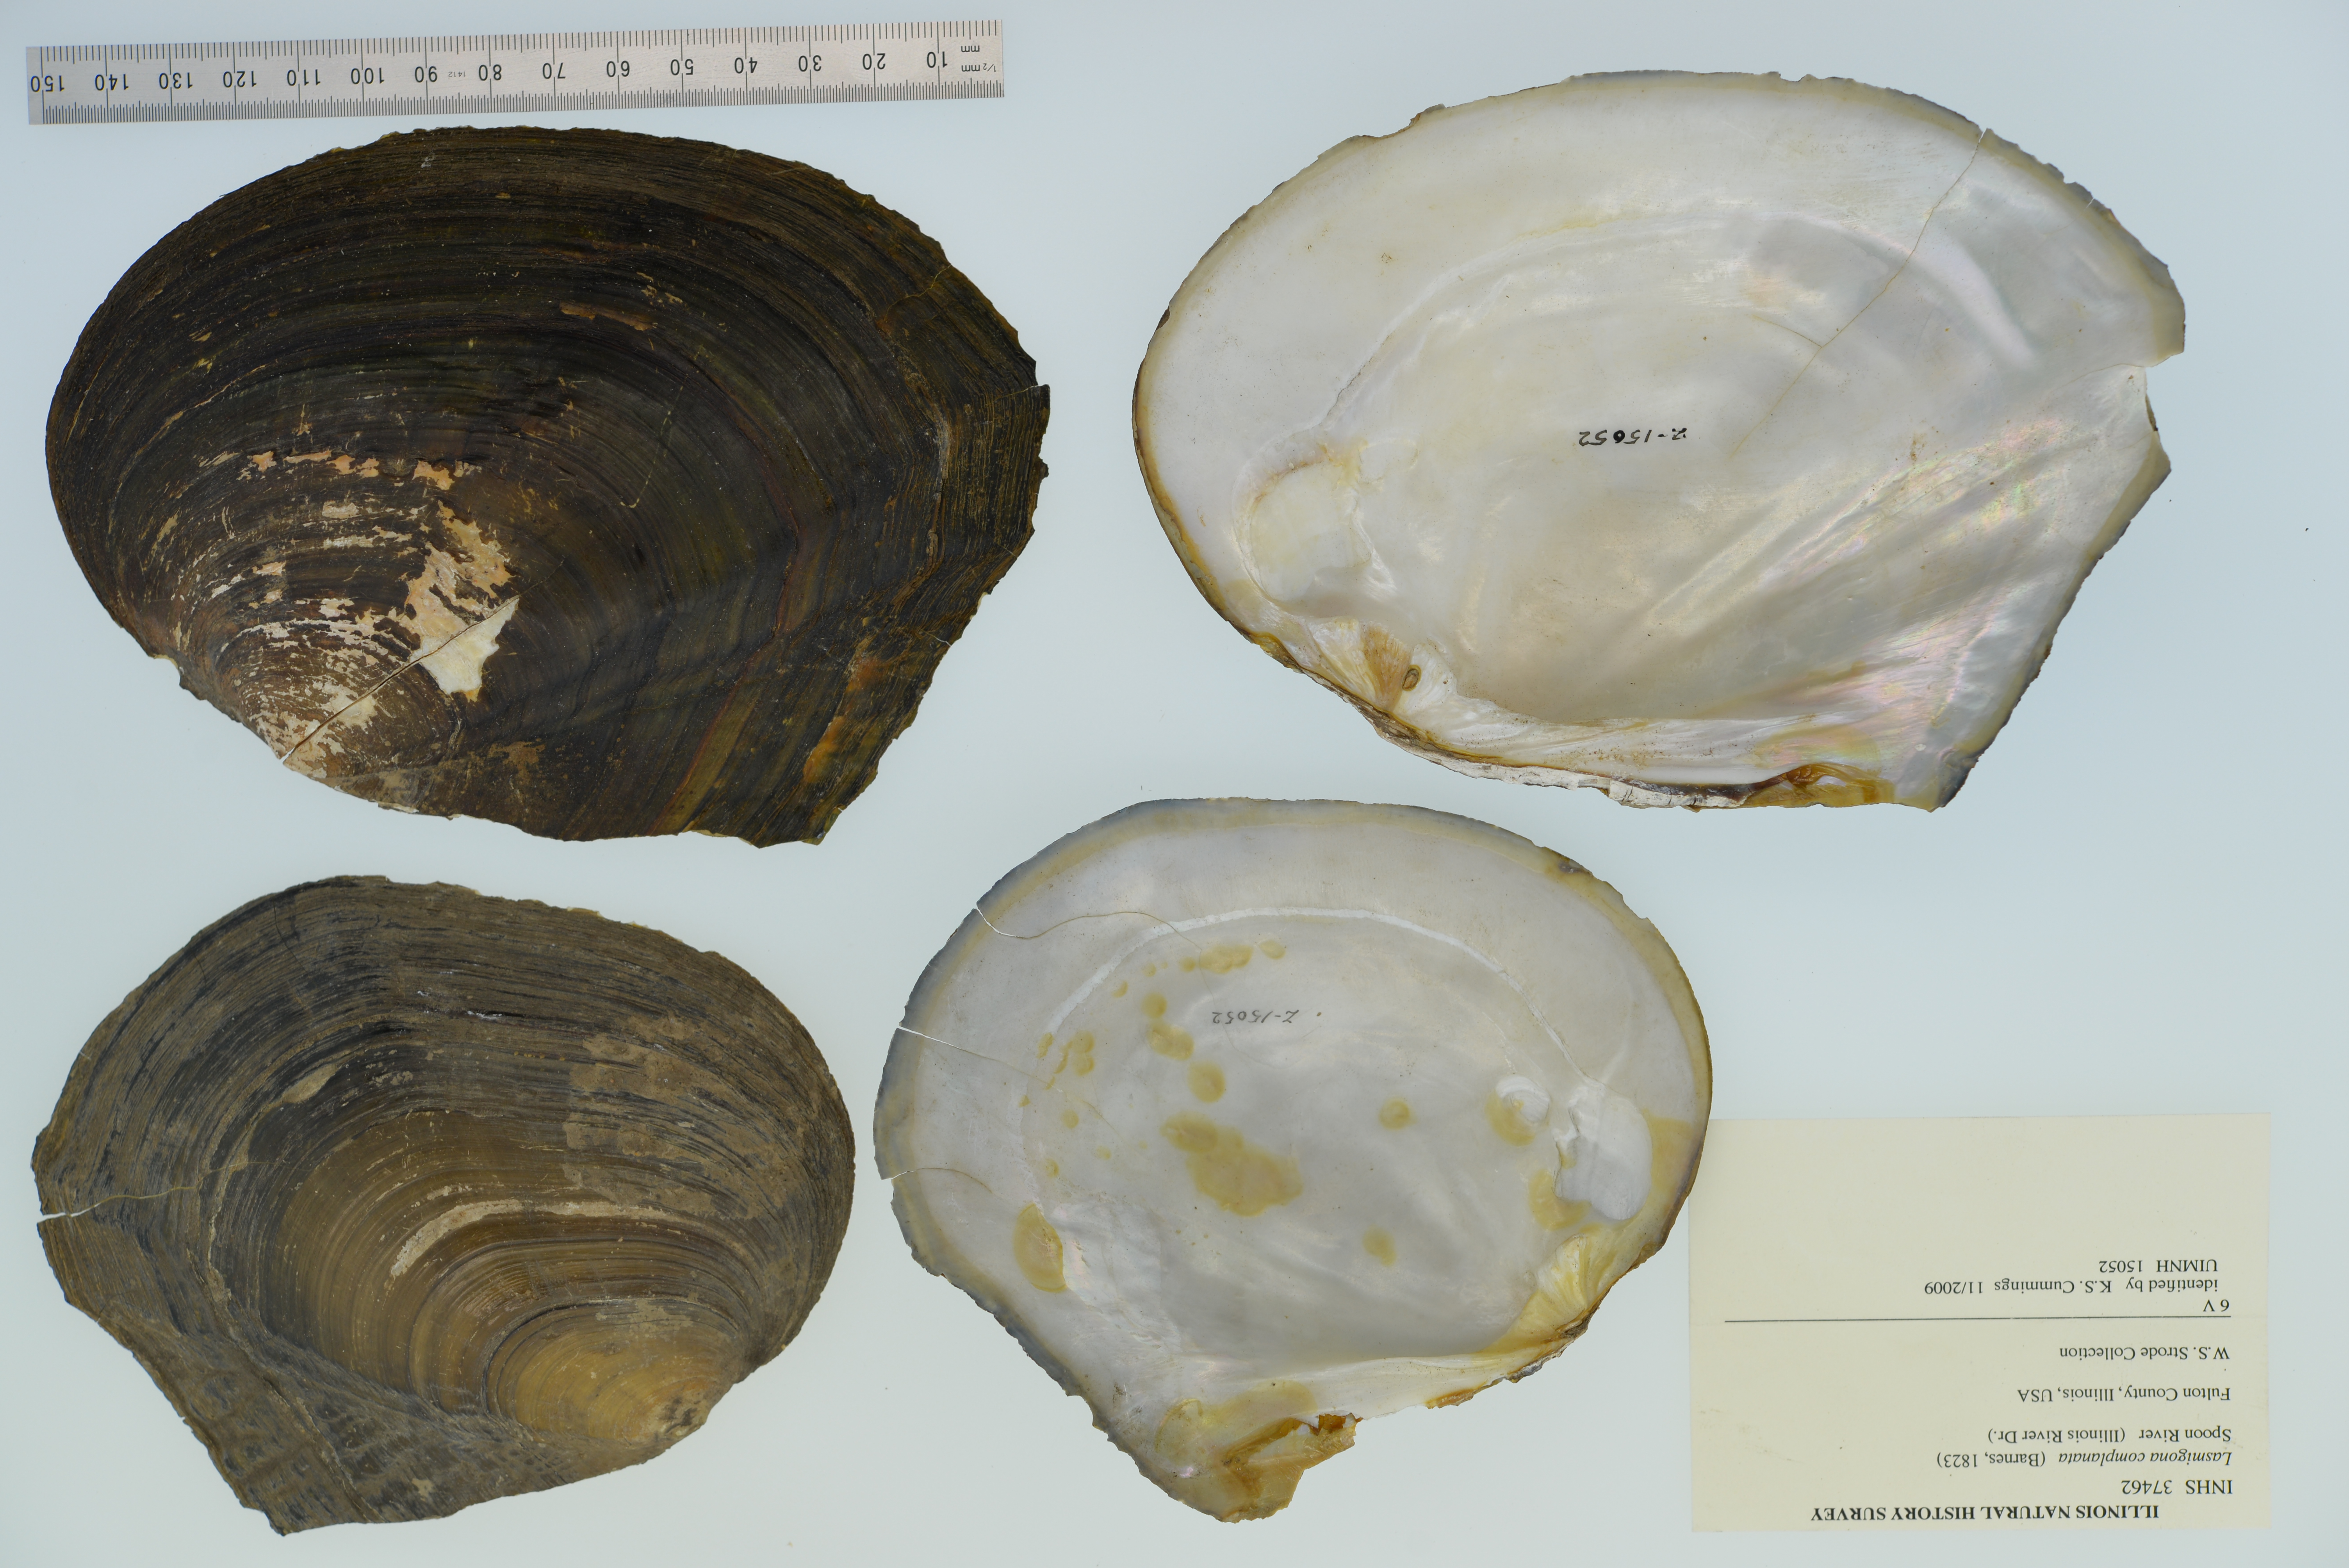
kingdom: Animalia
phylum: Mollusca
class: Bivalvia
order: Unionida
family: Unionidae
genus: Lasmigona
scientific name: Lasmigona complanata
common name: White heelsplitter
